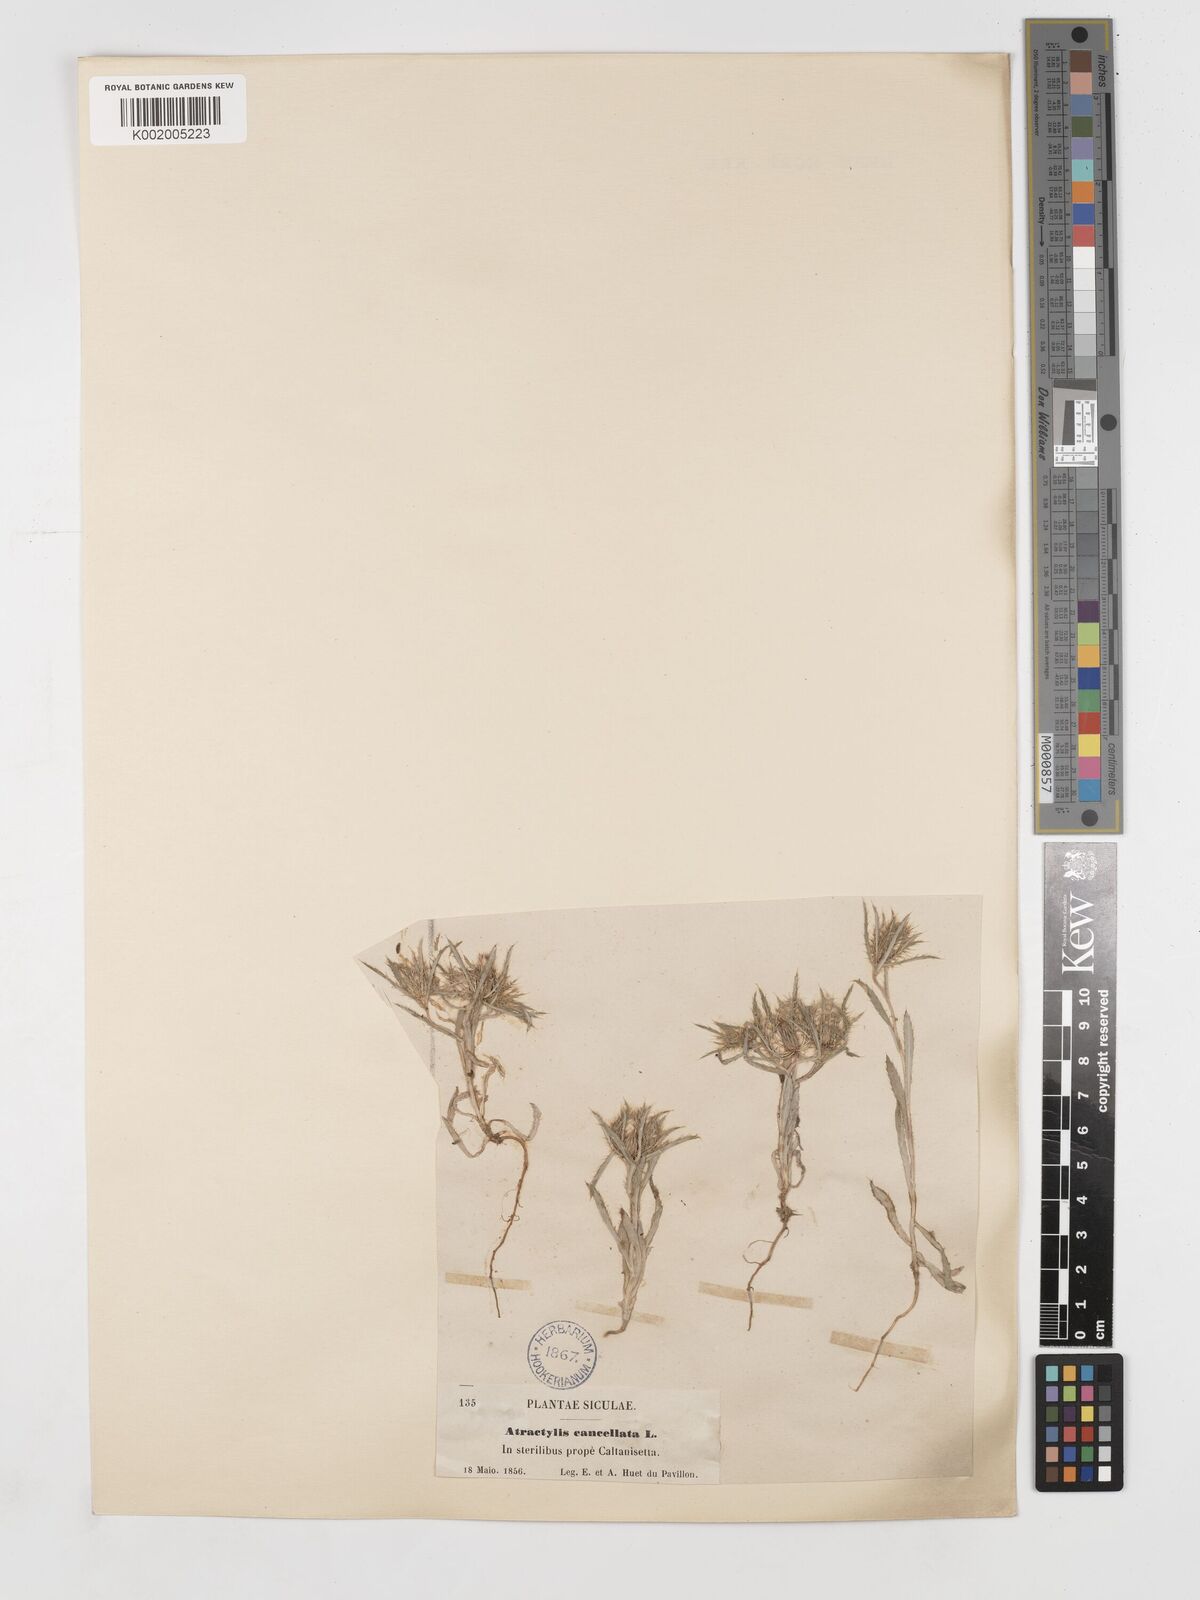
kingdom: Plantae
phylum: Tracheophyta
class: Magnoliopsida
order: Asterales
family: Asteraceae
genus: Atractylis
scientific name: Atractylis cancellata
